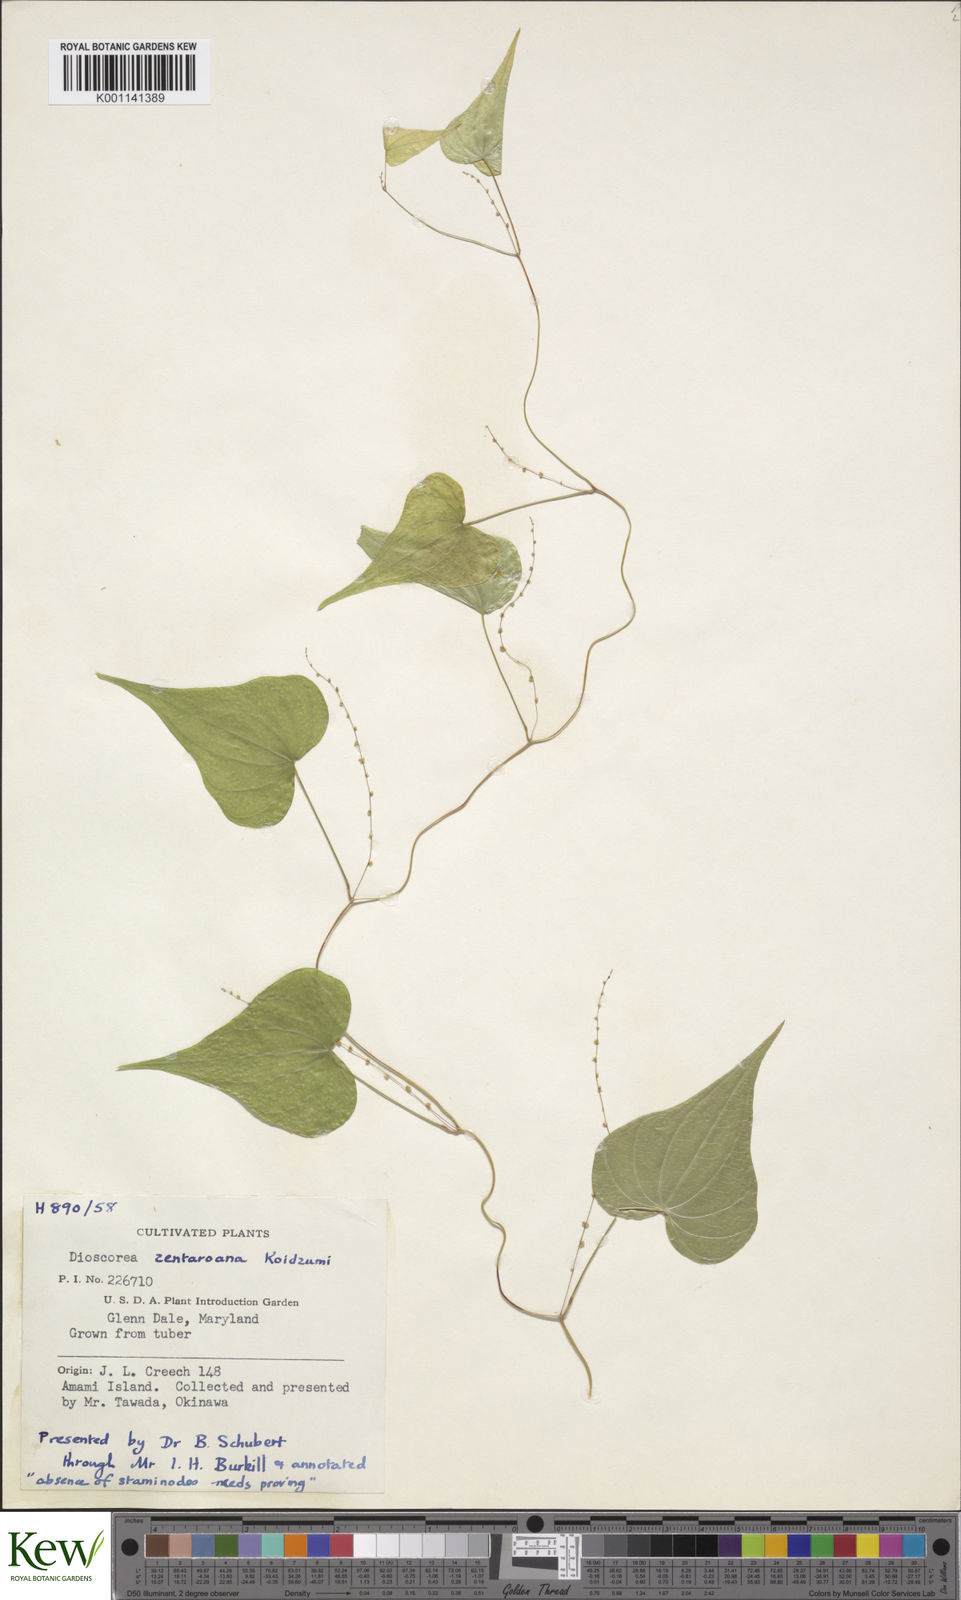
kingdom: Plantae
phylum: Tracheophyta
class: Liliopsida
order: Dioscoreales
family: Dioscoreaceae
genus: Dioscorea
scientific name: Dioscorea zentaroana
